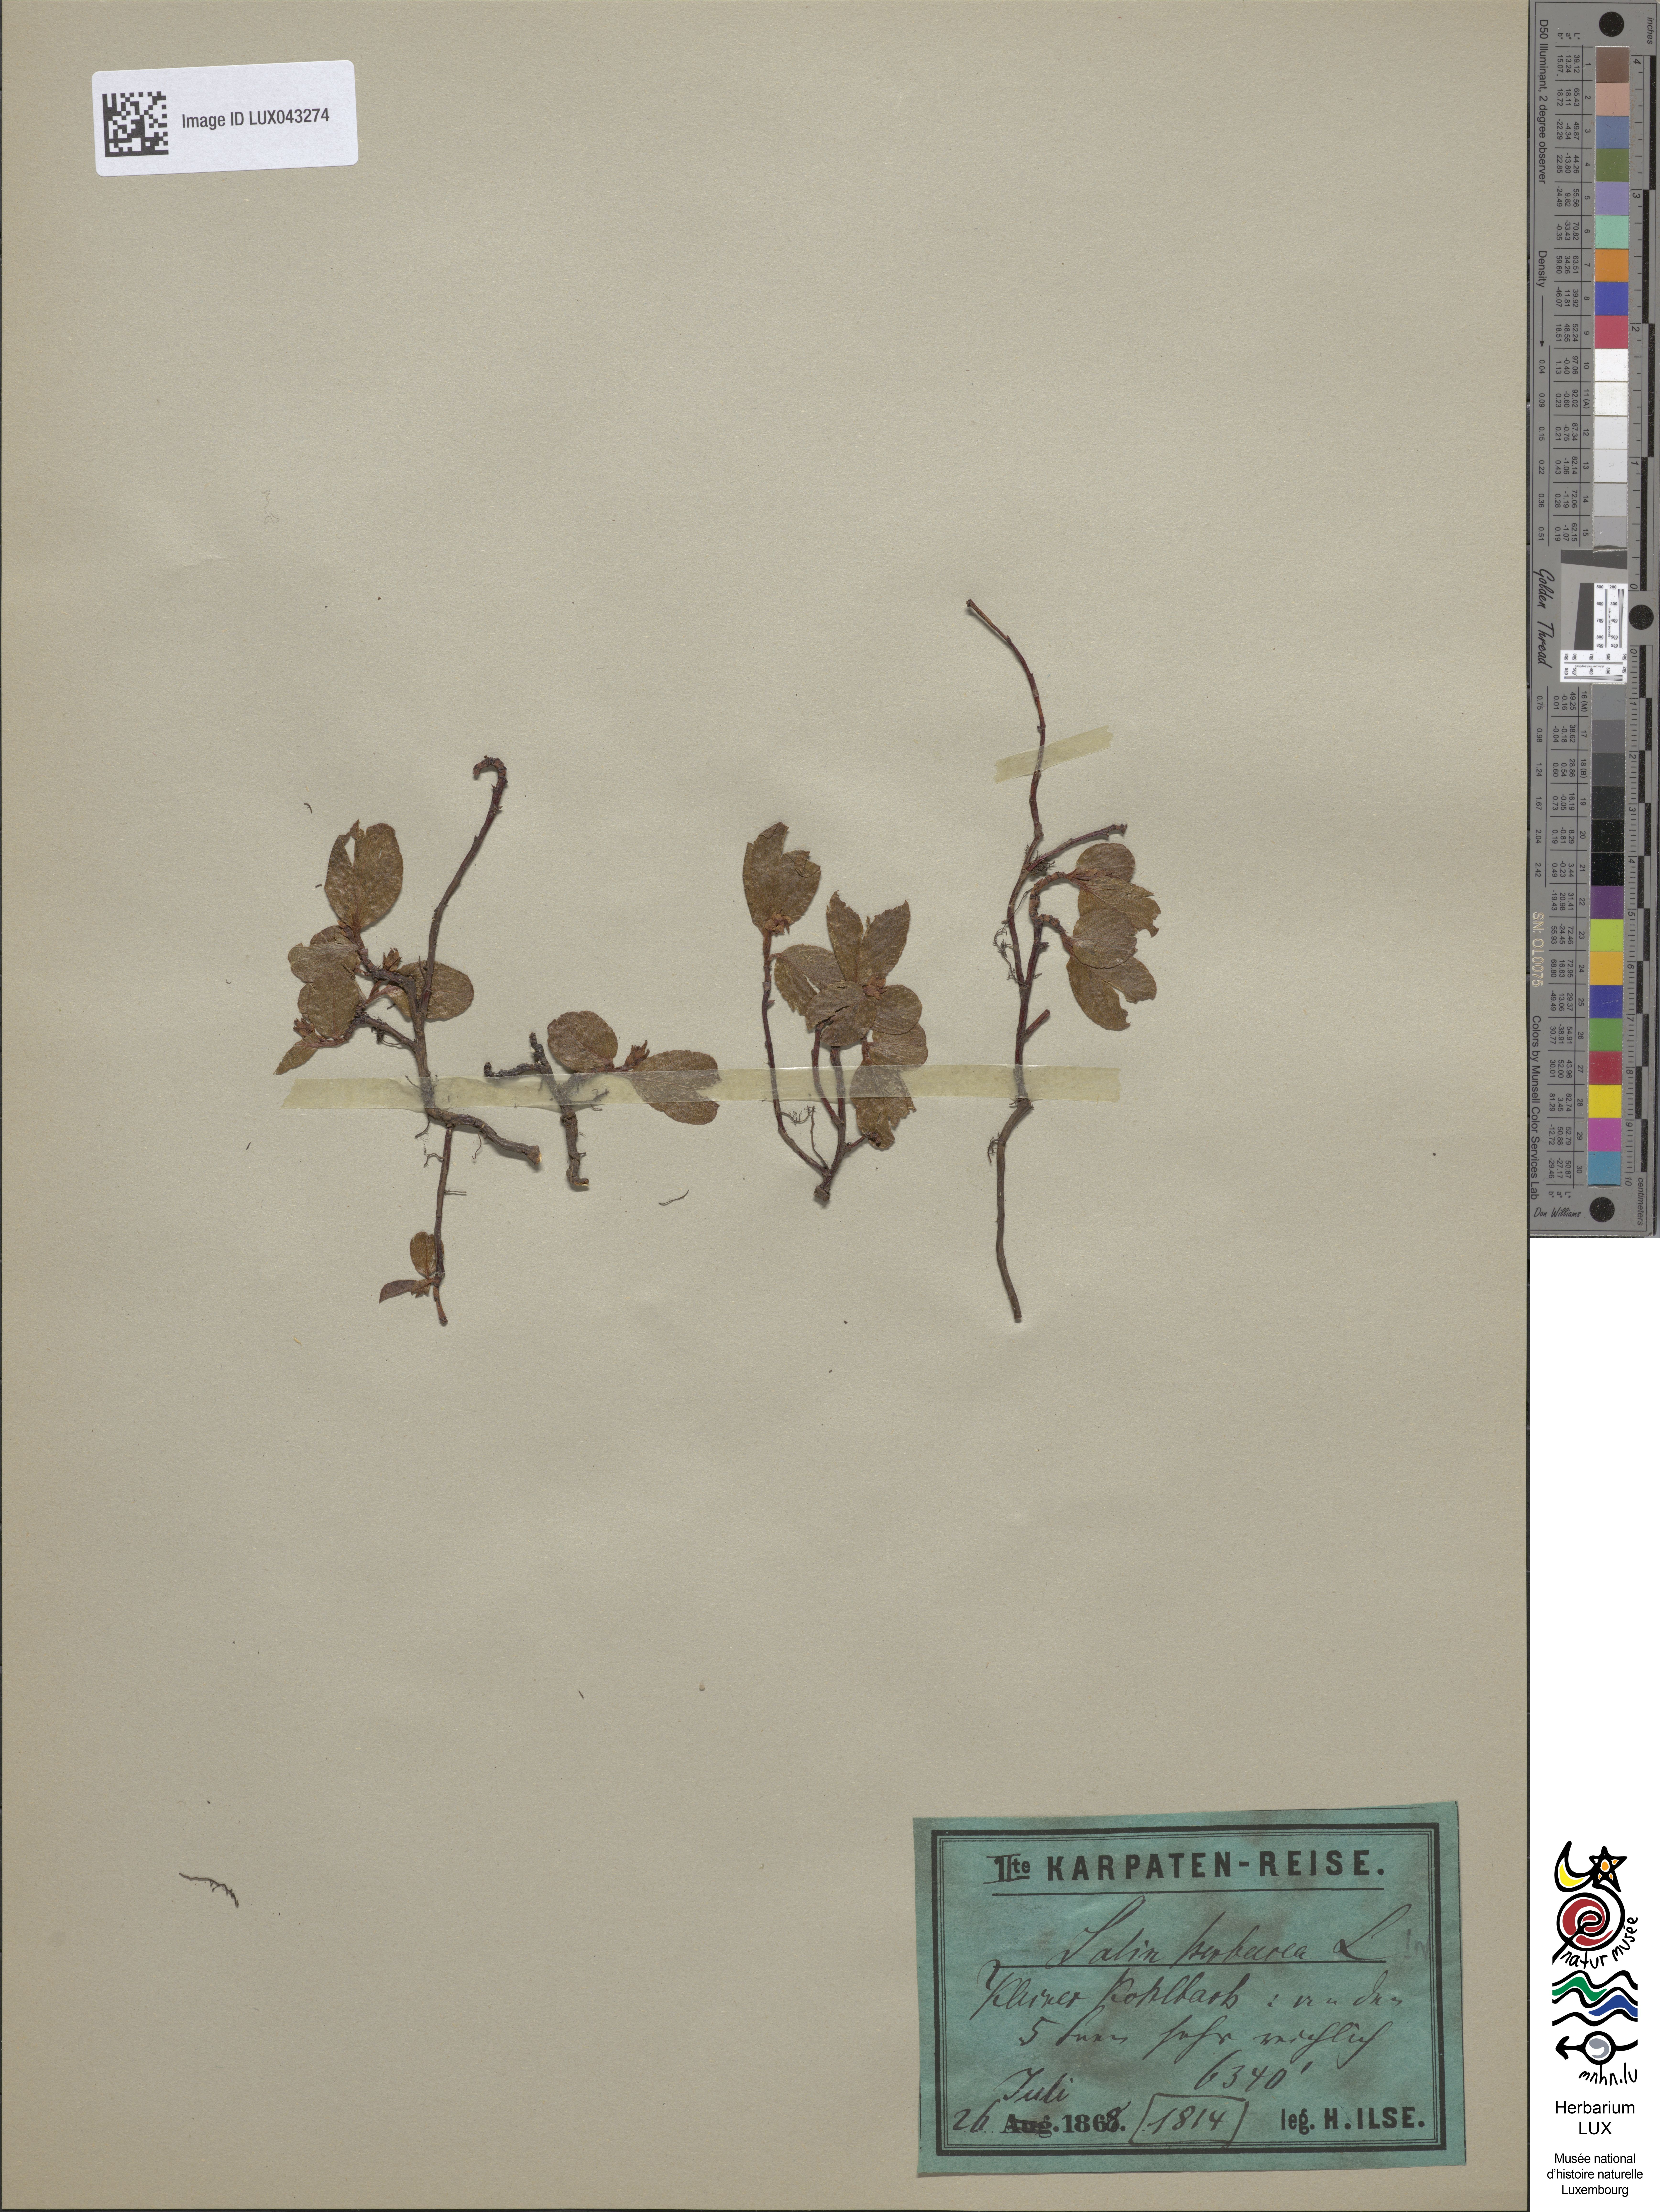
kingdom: Plantae
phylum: Tracheophyta
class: Magnoliopsida
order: Malpighiales
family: Salicaceae
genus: Salix
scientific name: Salix herbacea
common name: Dwarf willow
